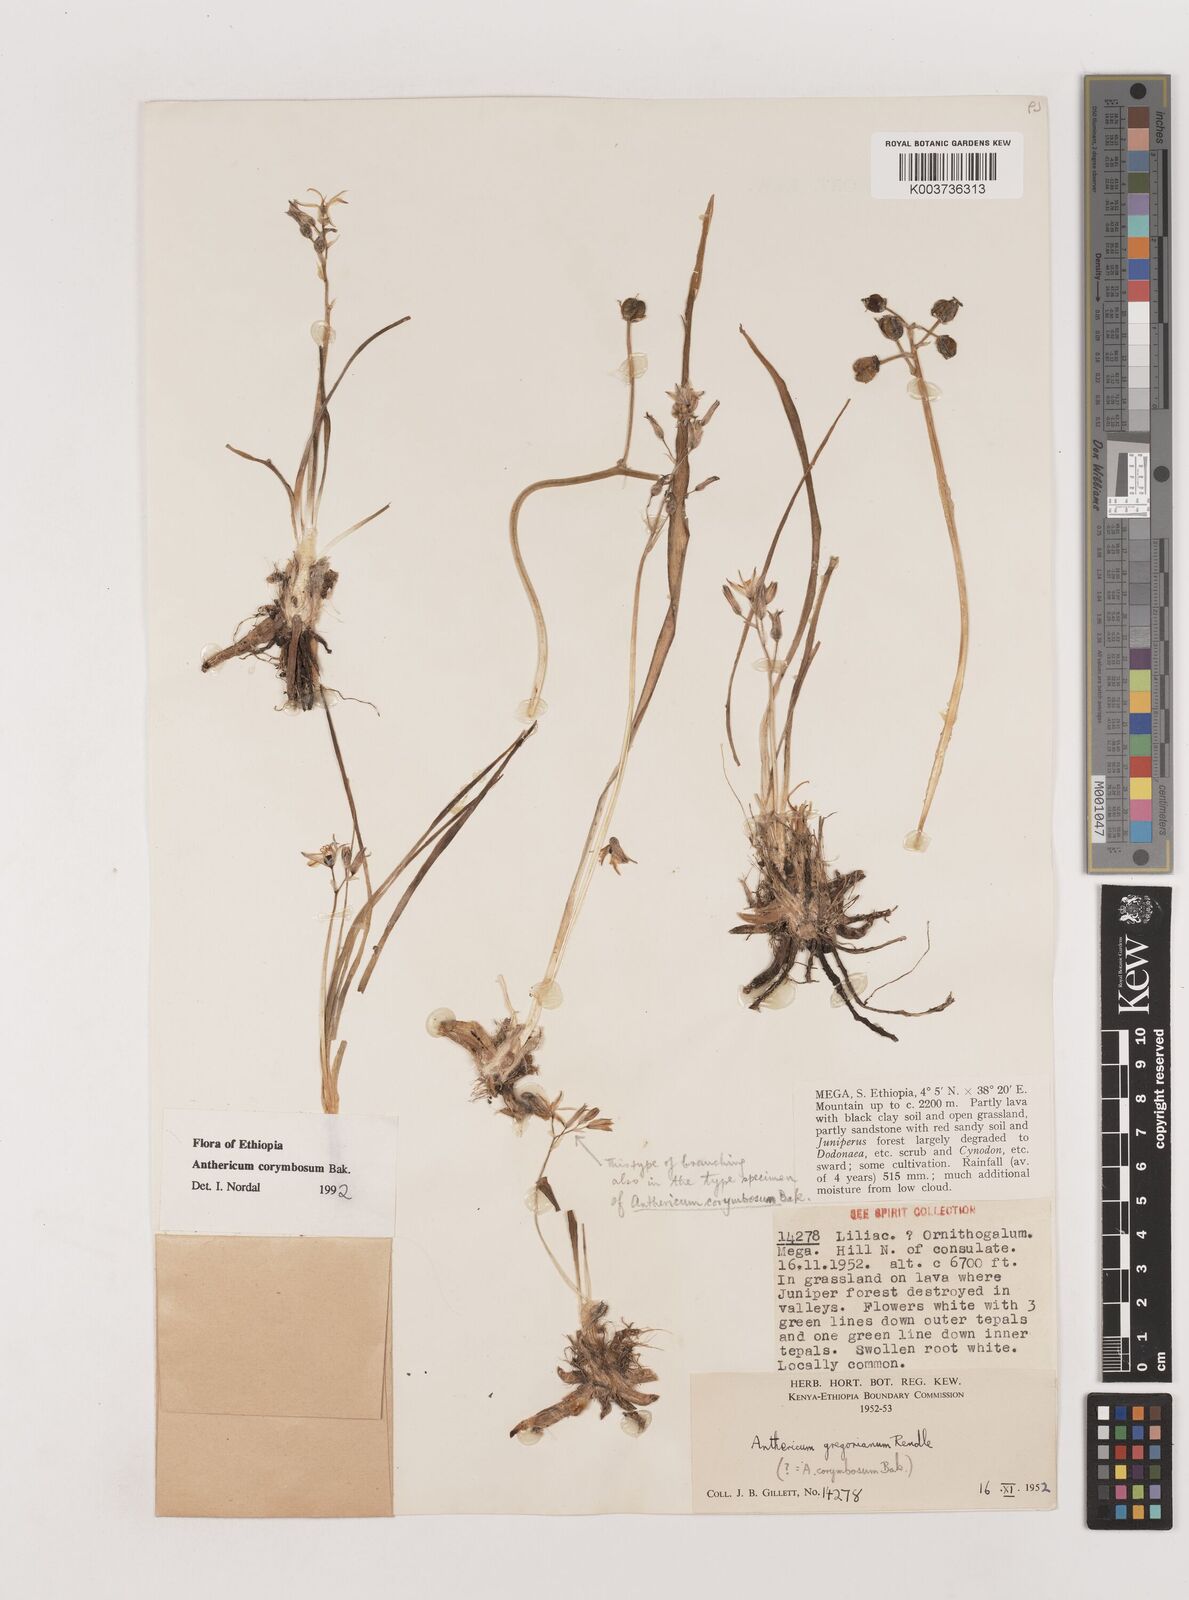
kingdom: Plantae
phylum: Tracheophyta
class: Liliopsida
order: Asparagales
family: Asparagaceae
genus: Anthericum
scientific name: Anthericum corymbosum
